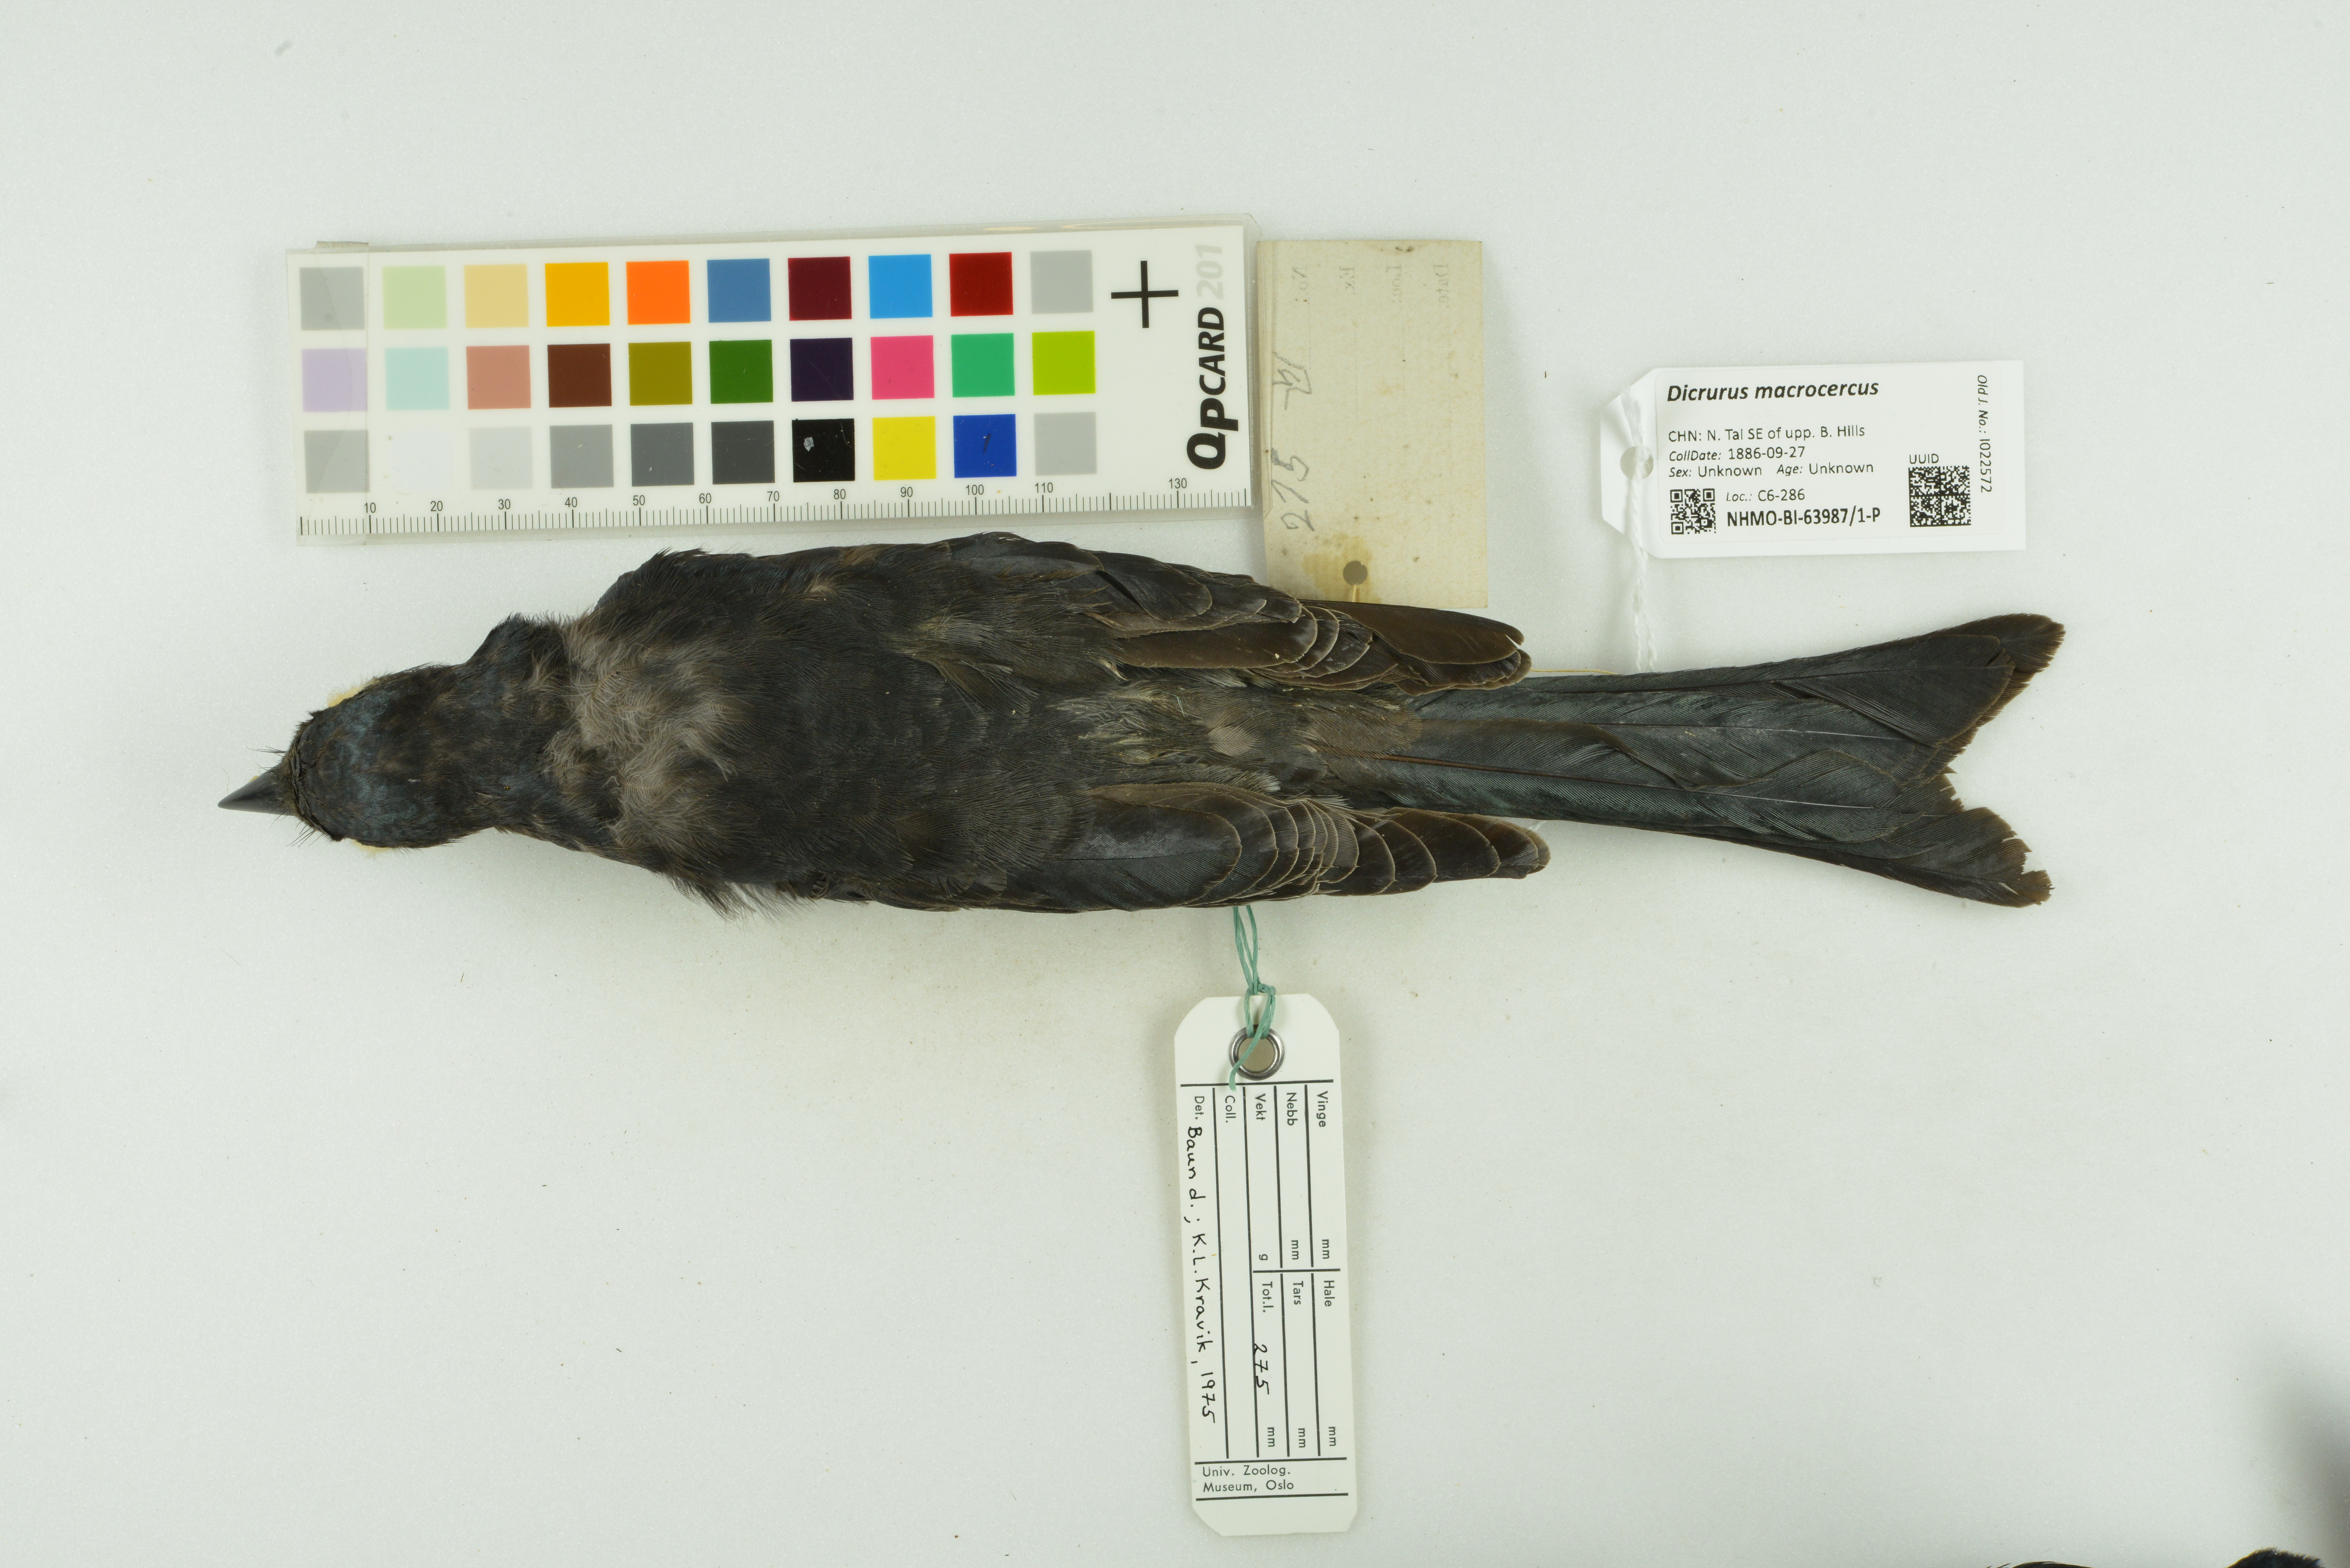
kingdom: Animalia
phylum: Chordata
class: Aves
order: Passeriformes
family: Dicruridae
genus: Dicrurus
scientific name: Dicrurus macrocercus
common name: Black drongo
